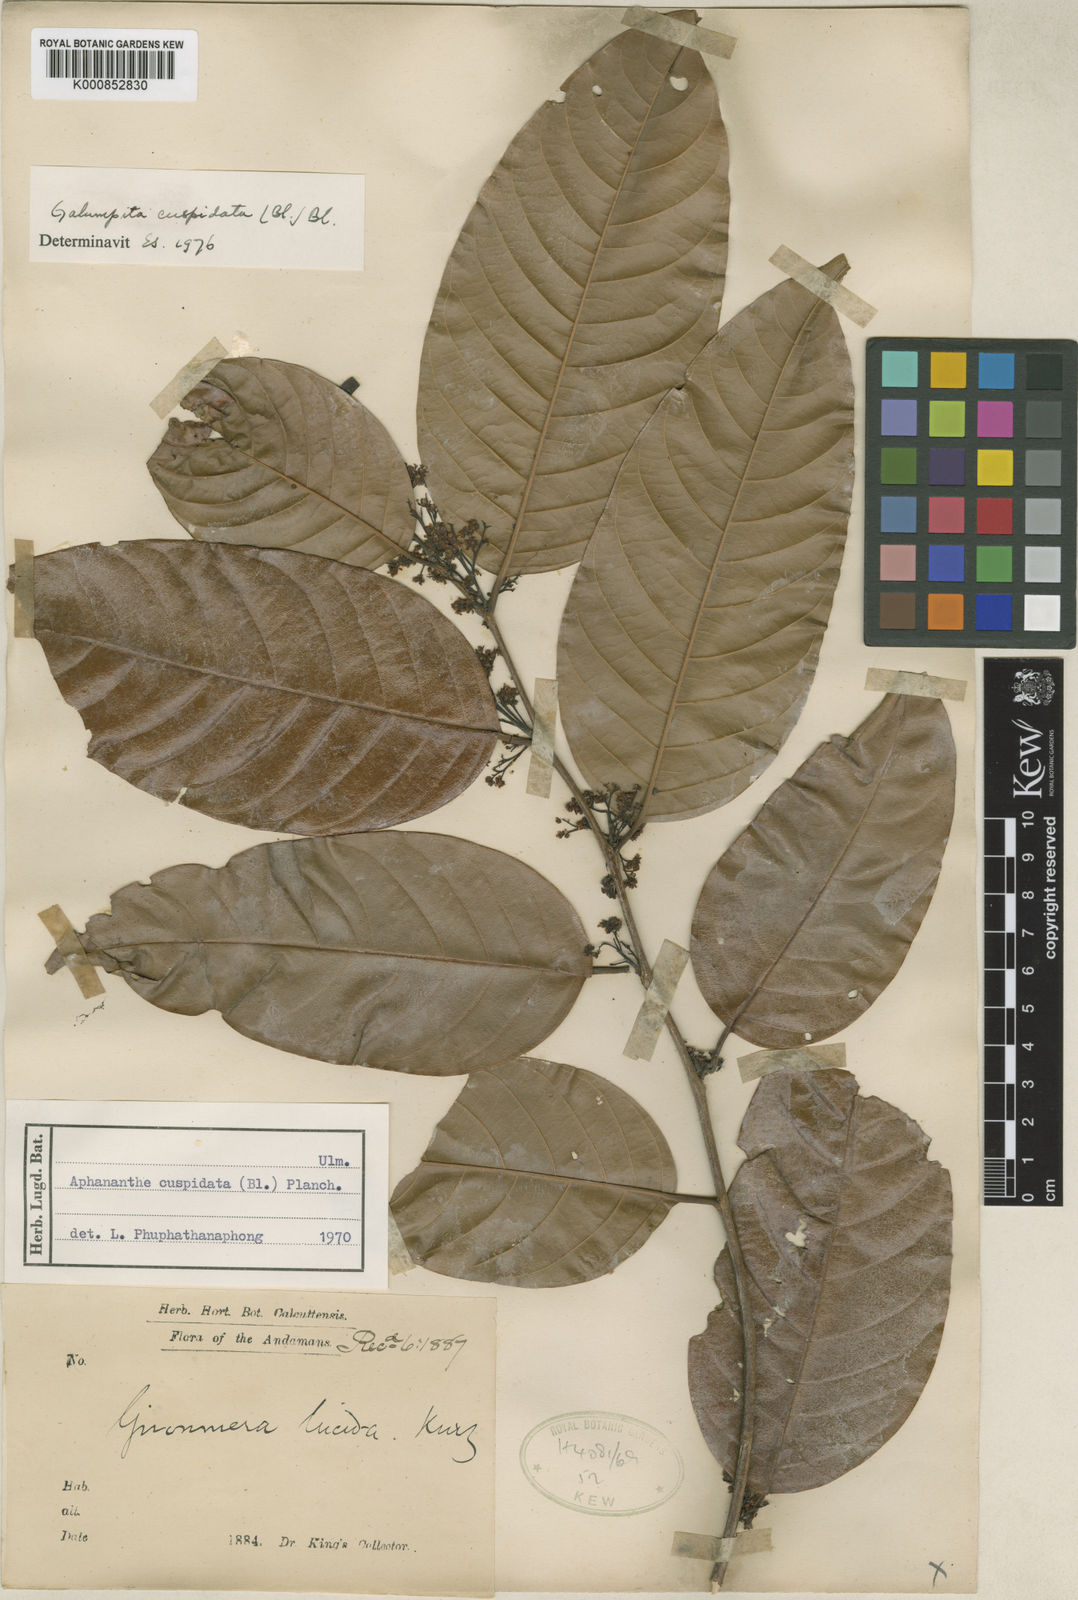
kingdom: Plantae
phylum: Tracheophyta
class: Magnoliopsida
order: Rosales
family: Cannabaceae
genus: Aphananthe
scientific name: Aphananthe cuspidata
